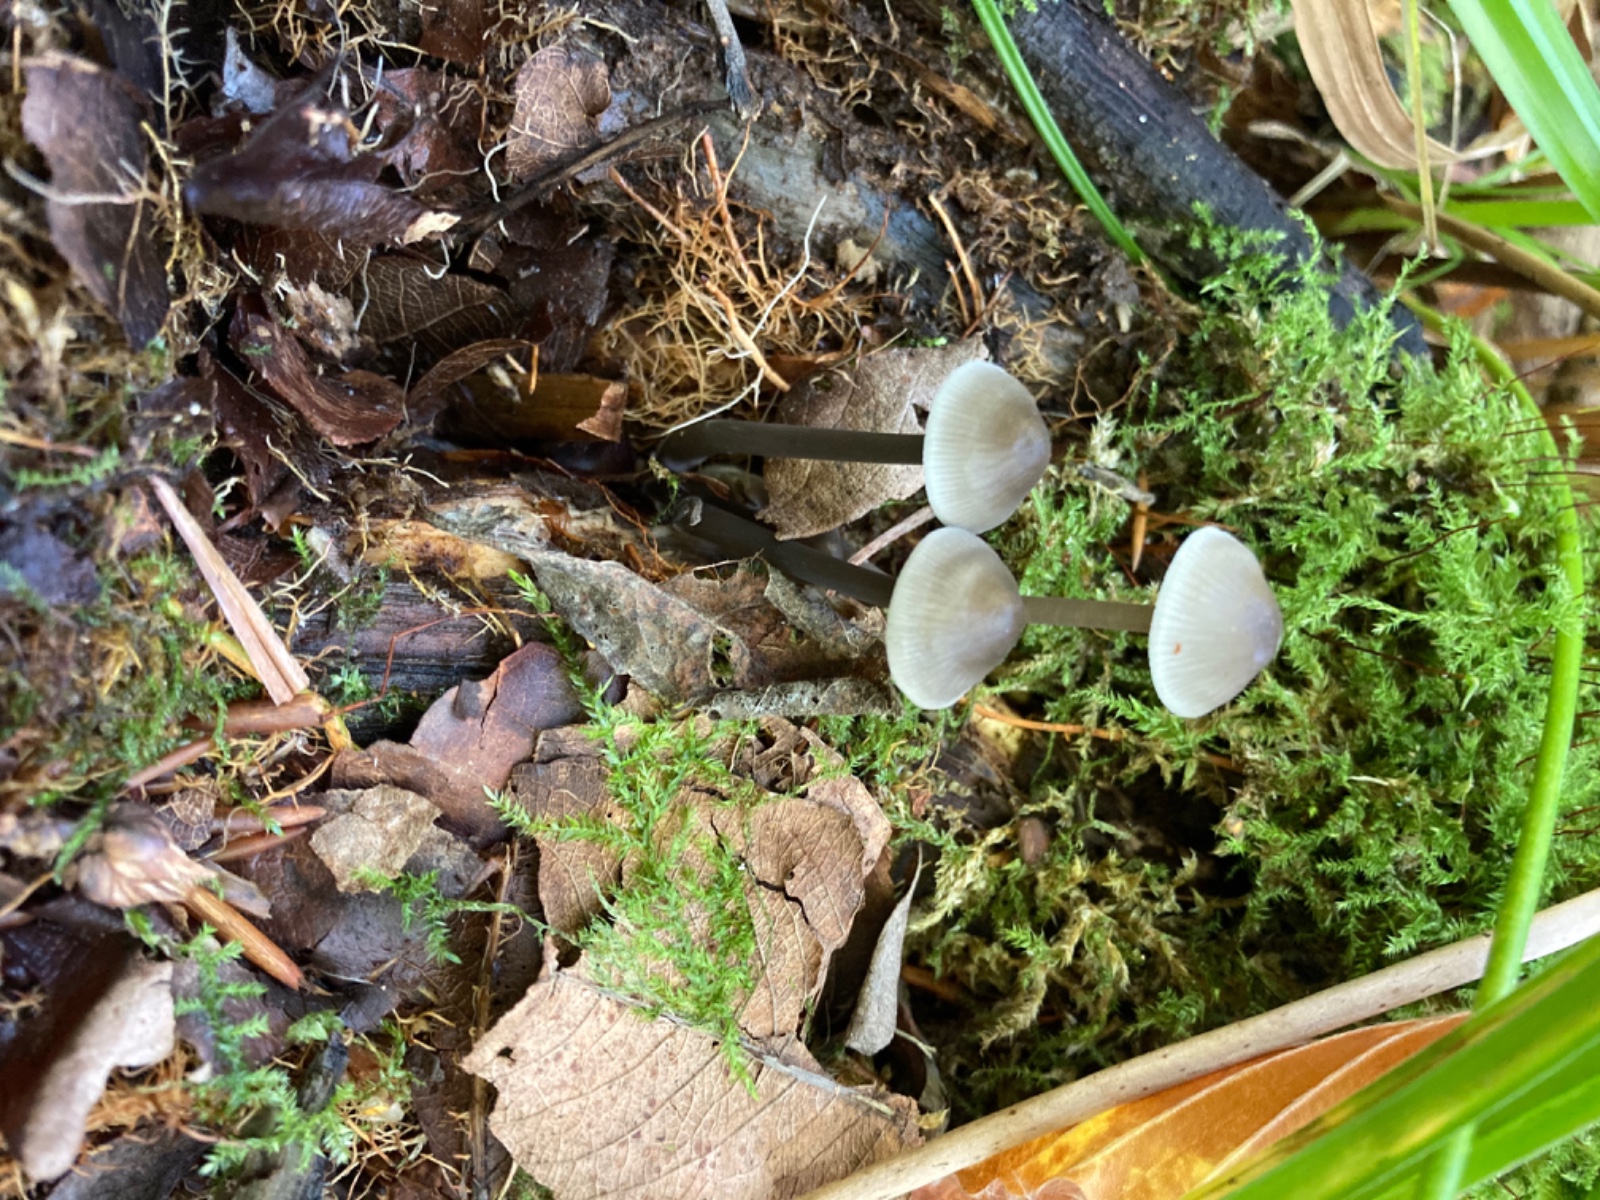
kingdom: Fungi
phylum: Basidiomycota
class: Agaricomycetes
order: Agaricales
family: Mycenaceae
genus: Mycena
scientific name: Mycena galericulata
